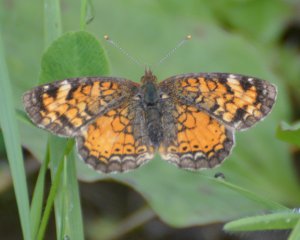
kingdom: Animalia
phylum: Arthropoda
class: Insecta
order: Lepidoptera
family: Nymphalidae
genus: Phyciodes
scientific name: Phyciodes tharos
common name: Northern Crescent
